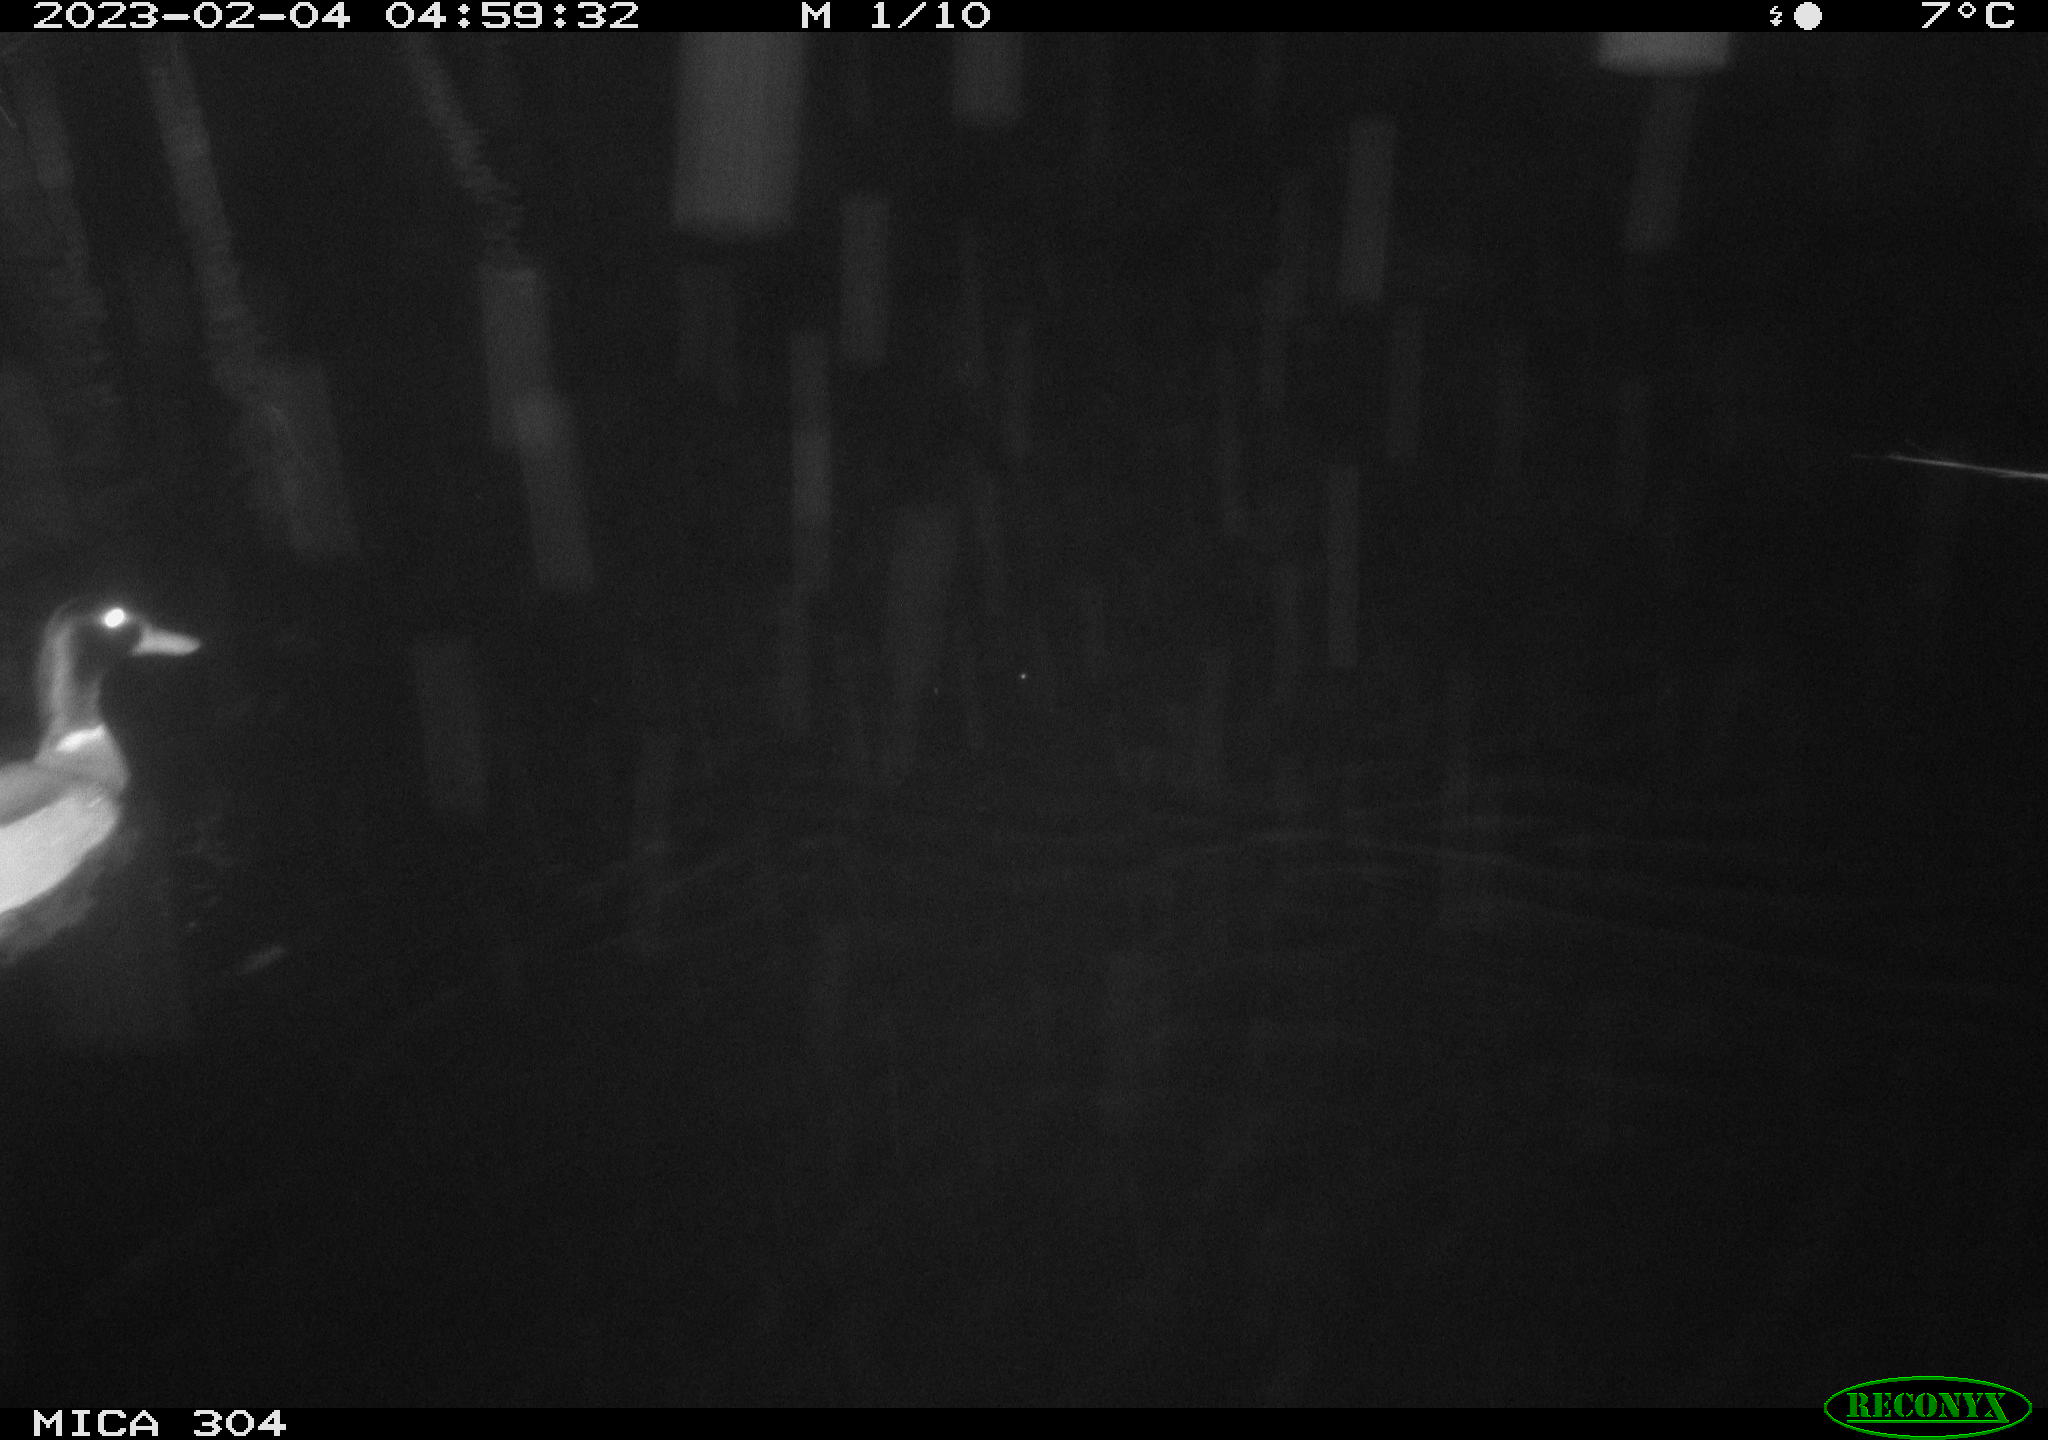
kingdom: Animalia
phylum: Chordata
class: Aves
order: Anseriformes
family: Anatidae
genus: Anas
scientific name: Anas
